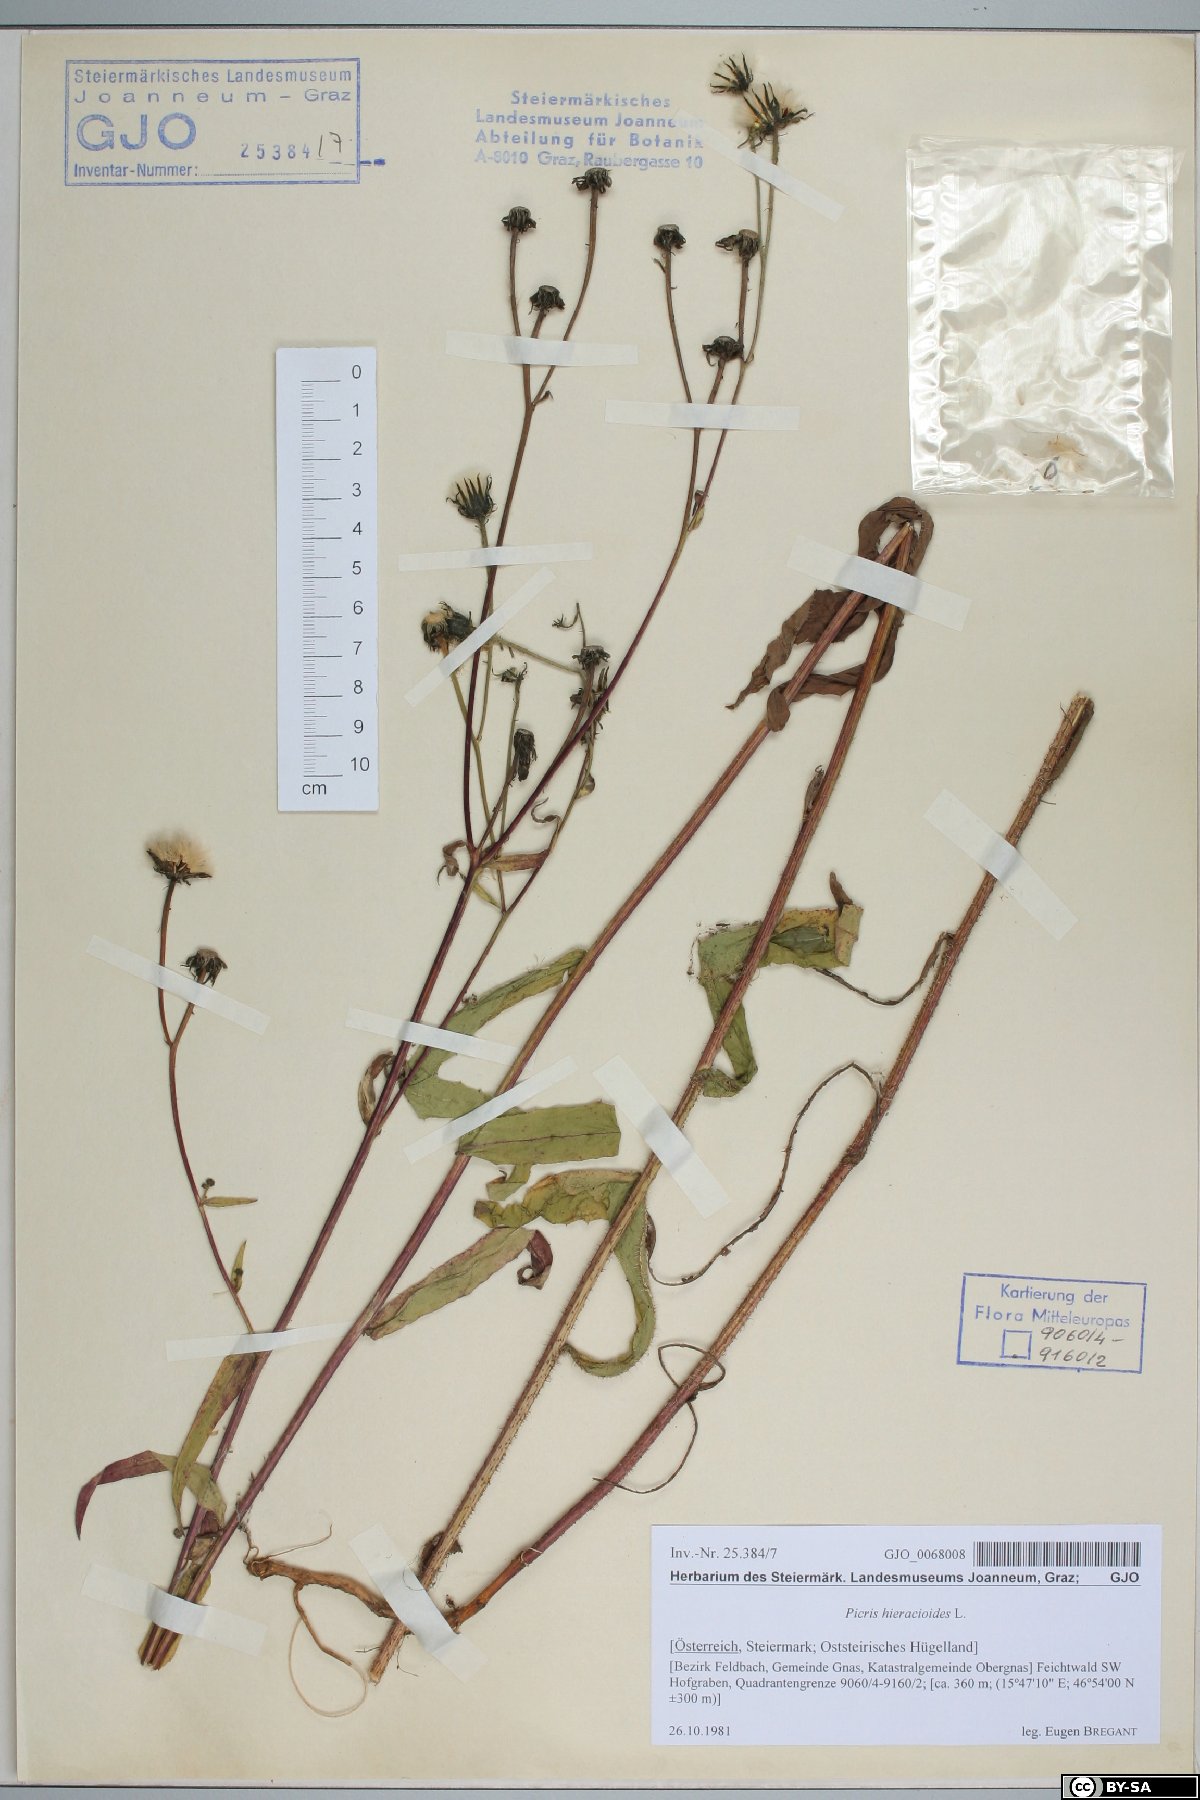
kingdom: Plantae
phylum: Tracheophyta
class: Magnoliopsida
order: Asterales
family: Asteraceae
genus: Picris
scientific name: Picris hieracioides
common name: Hawkweed oxtongue
